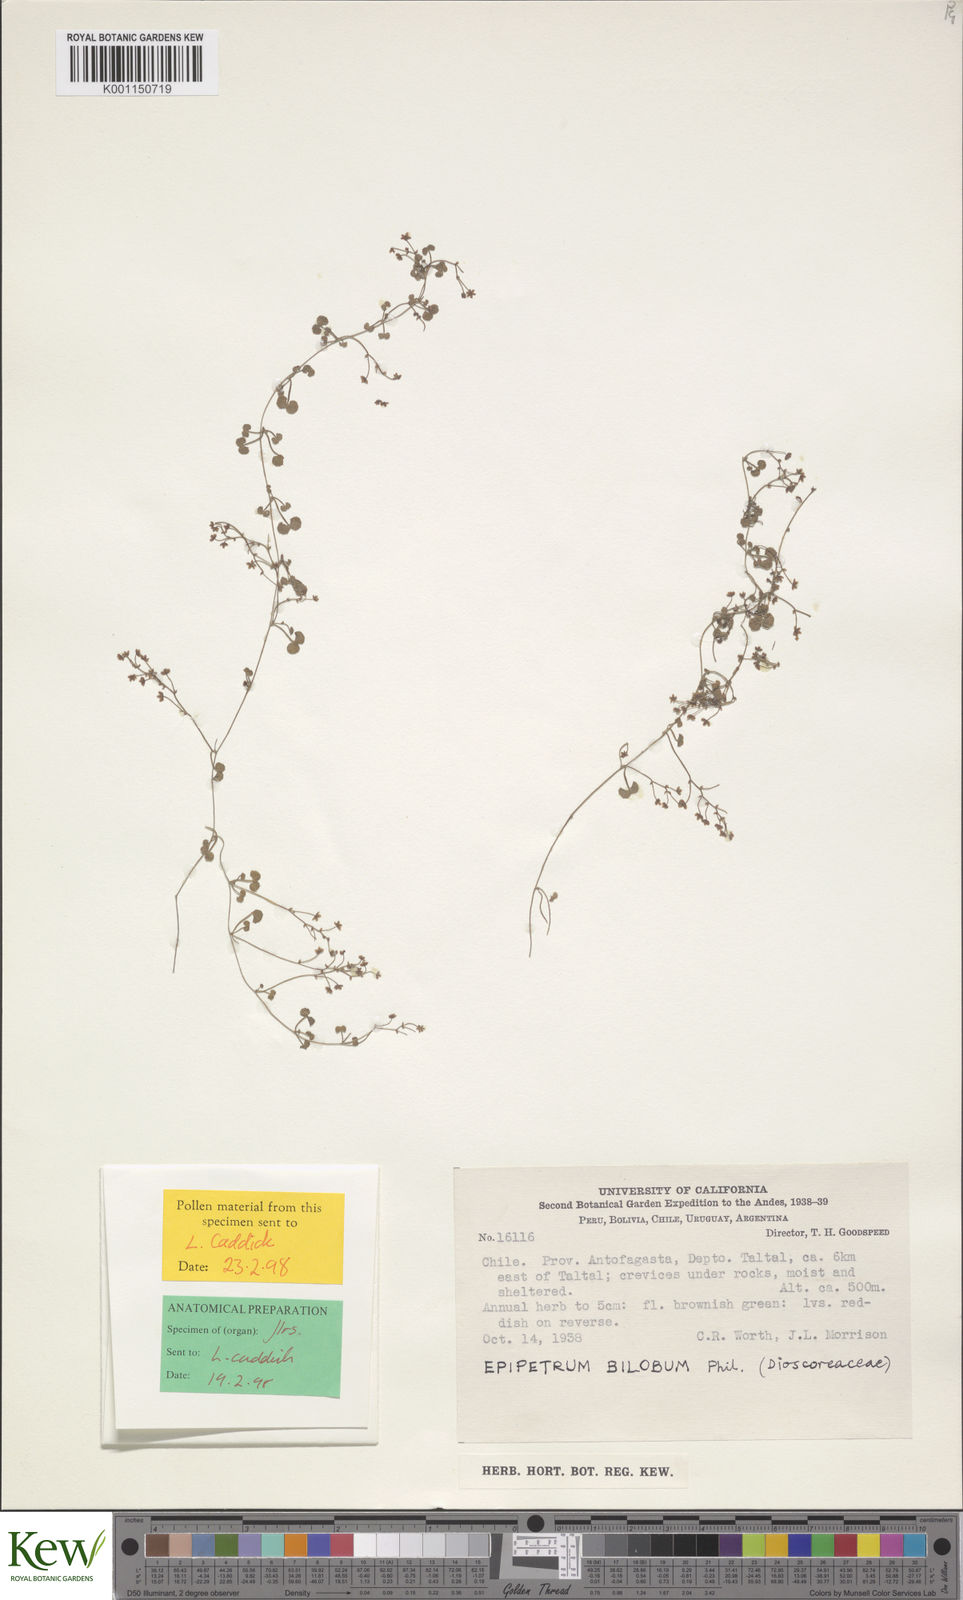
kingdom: Plantae
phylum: Tracheophyta
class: Liliopsida
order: Dioscoreales
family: Dioscoreaceae
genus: Dioscorea
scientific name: Dioscorea biloba
